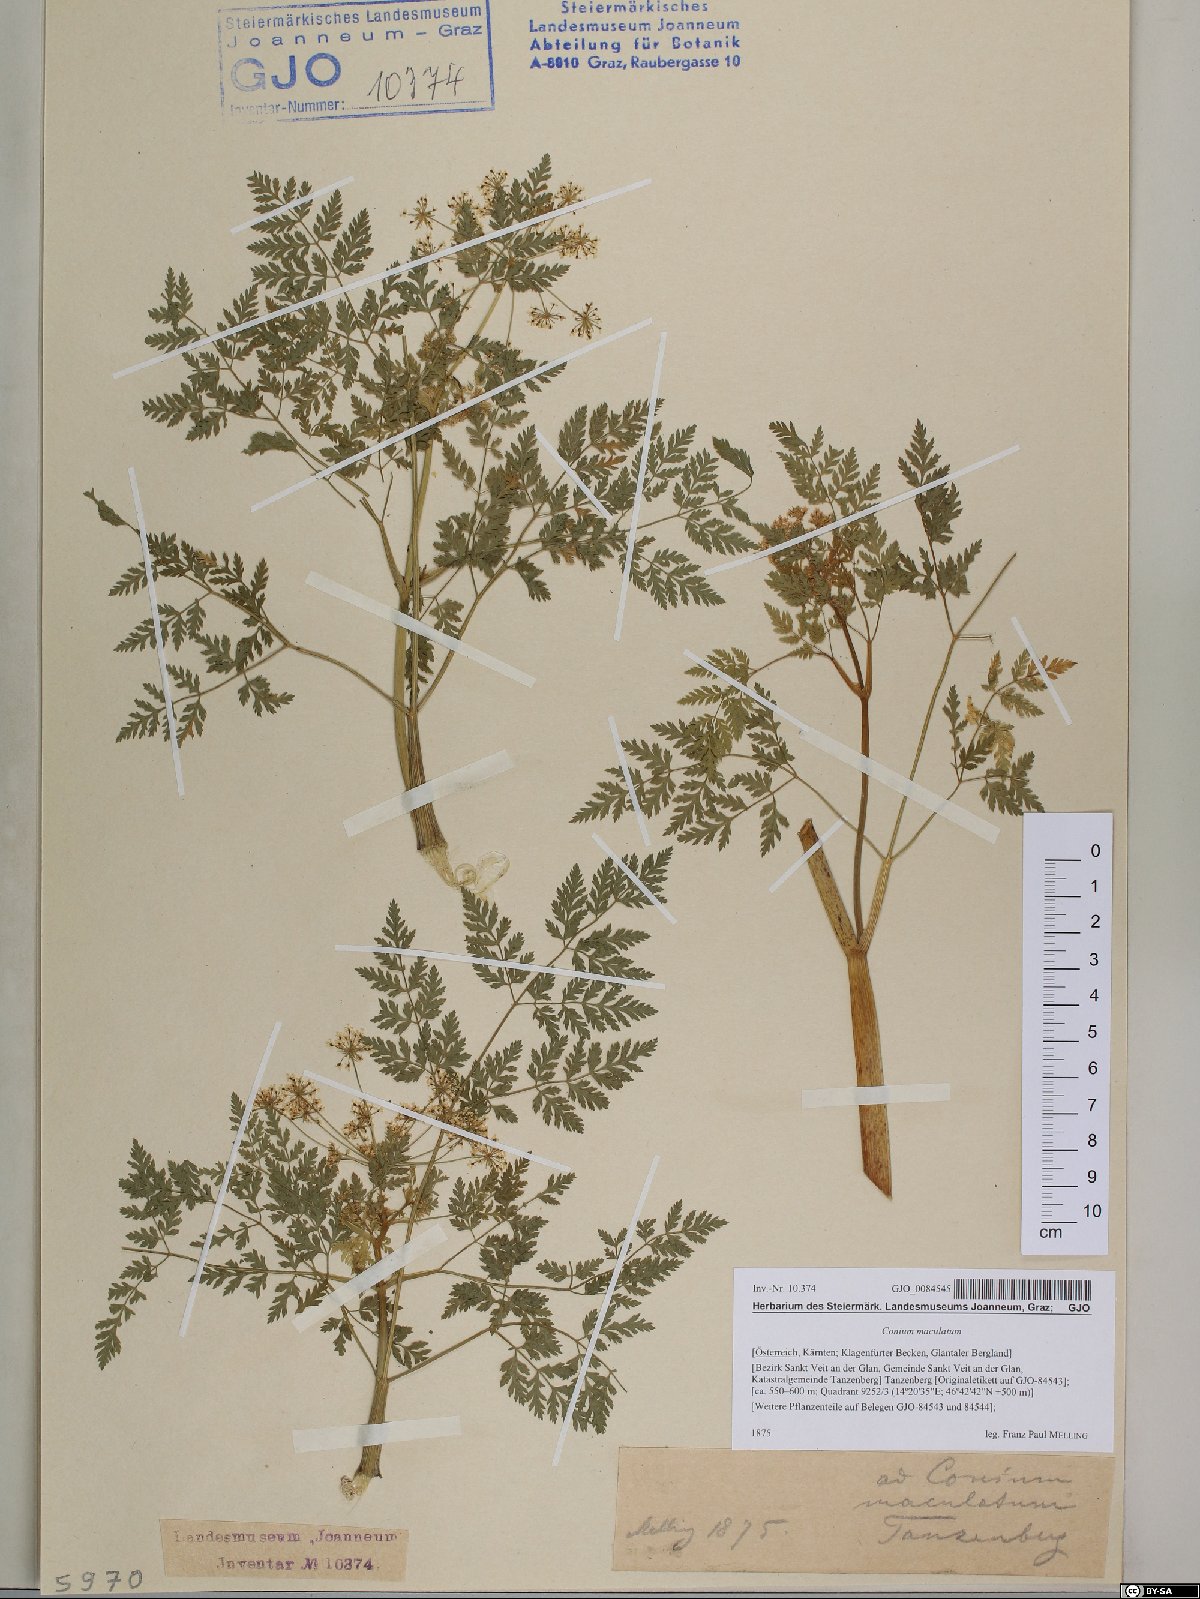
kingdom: Plantae
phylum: Tracheophyta
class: Magnoliopsida
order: Apiales
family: Apiaceae
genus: Conium
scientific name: Conium maculatum
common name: Hemlock
